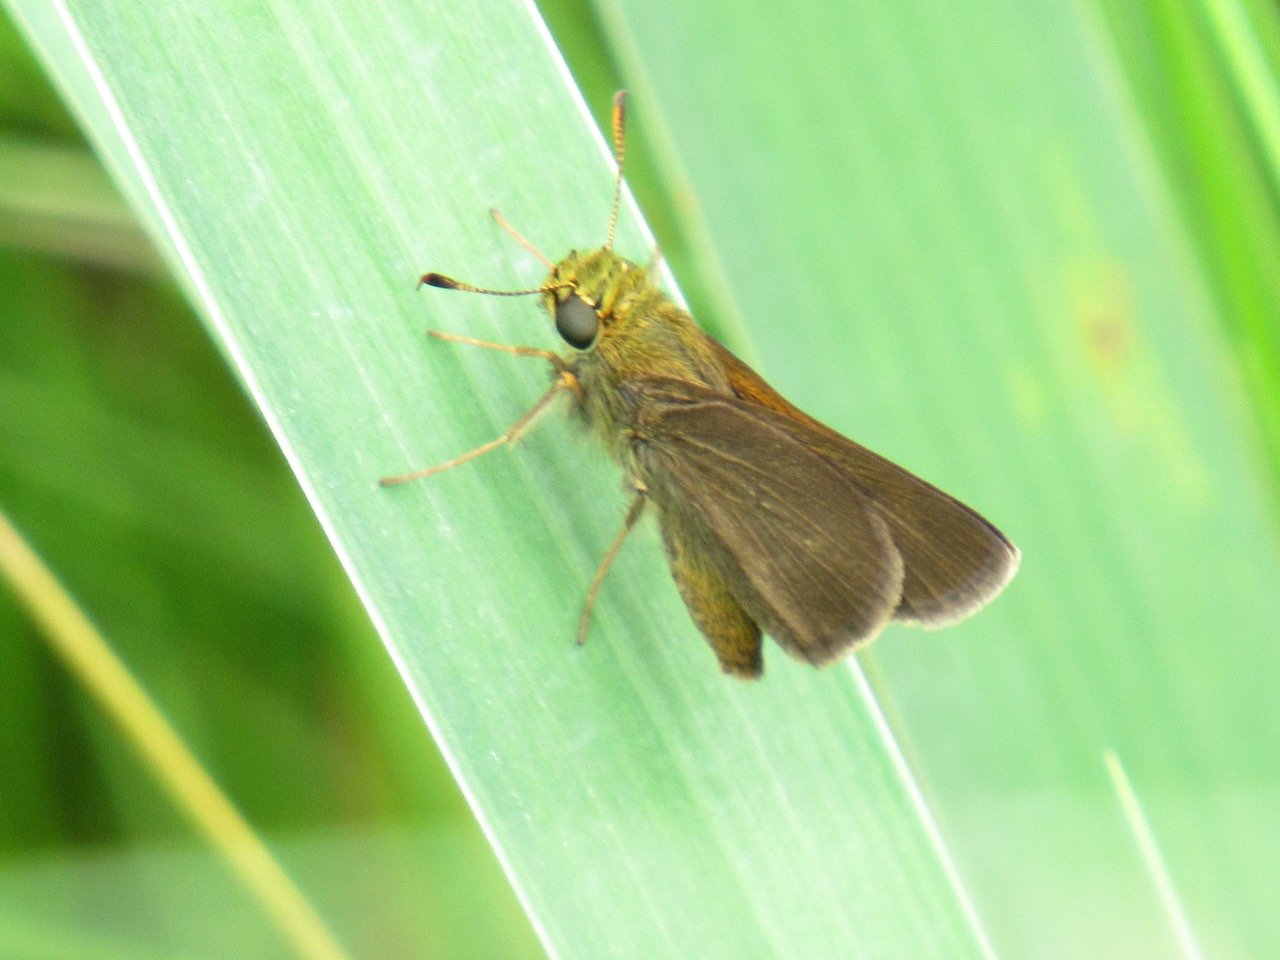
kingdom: Animalia
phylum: Arthropoda
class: Insecta
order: Lepidoptera
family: Hesperiidae
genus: Euphyes
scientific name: Euphyes vestris
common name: Dun Skipper
